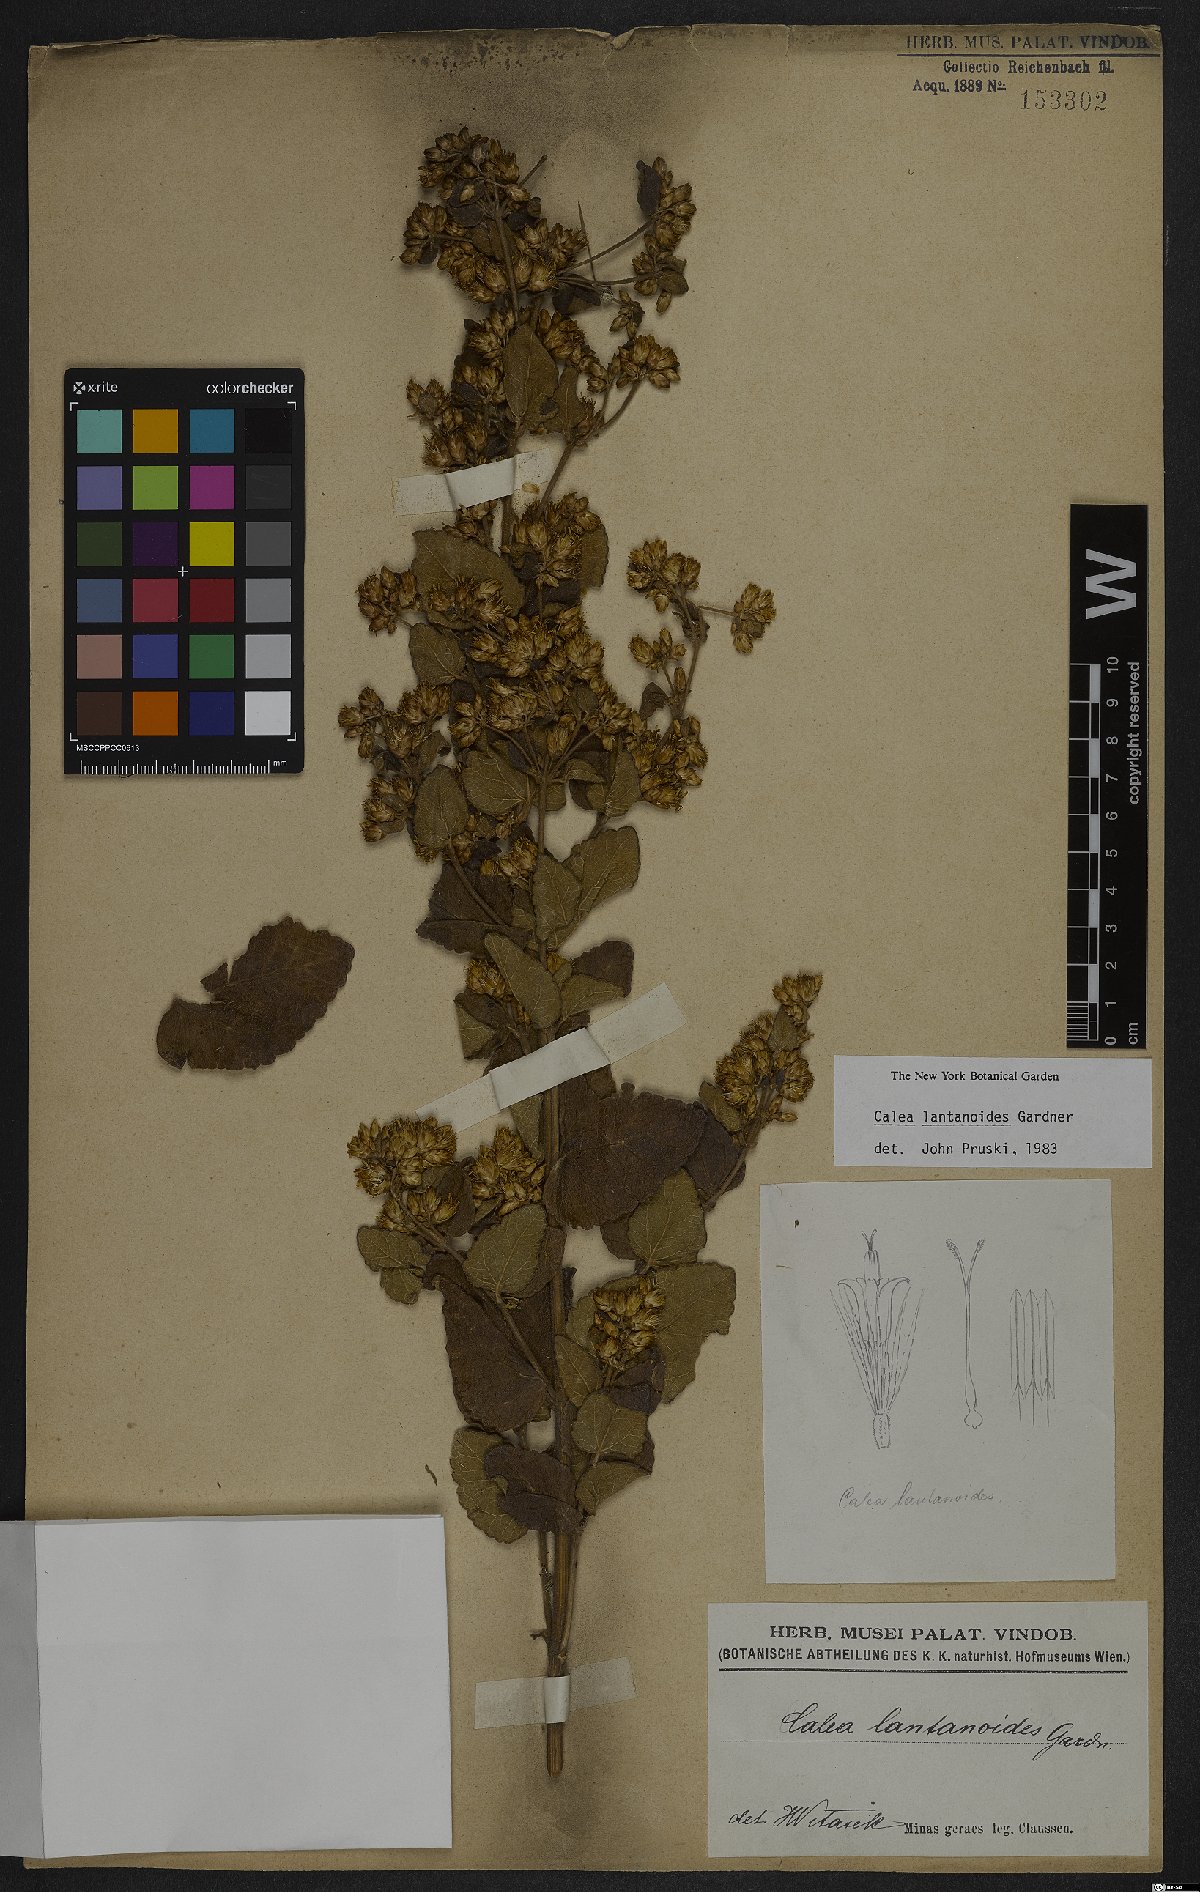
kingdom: Plantae
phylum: Tracheophyta
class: Magnoliopsida
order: Asterales
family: Asteraceae
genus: Calea
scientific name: Calea lantanoides
